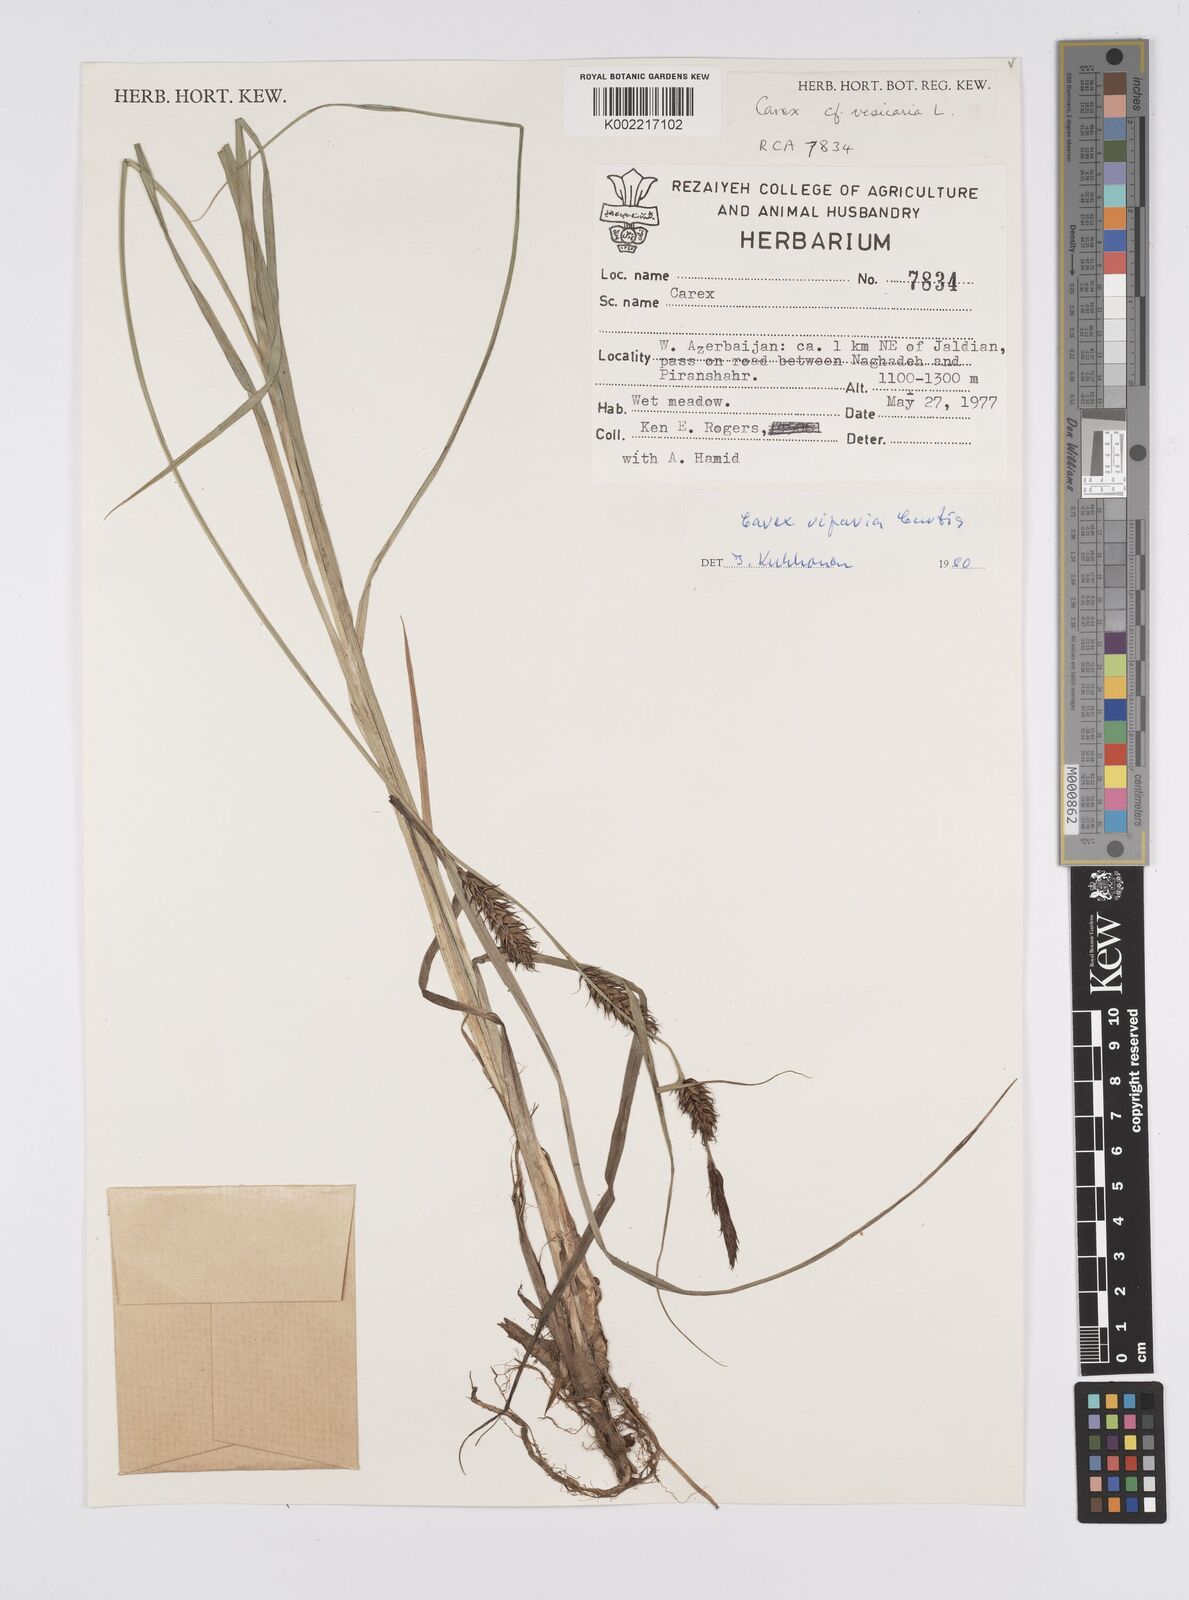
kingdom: Plantae
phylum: Tracheophyta
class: Liliopsida
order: Poales
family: Cyperaceae
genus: Carex
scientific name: Carex riparia
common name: Greater pond-sedge
